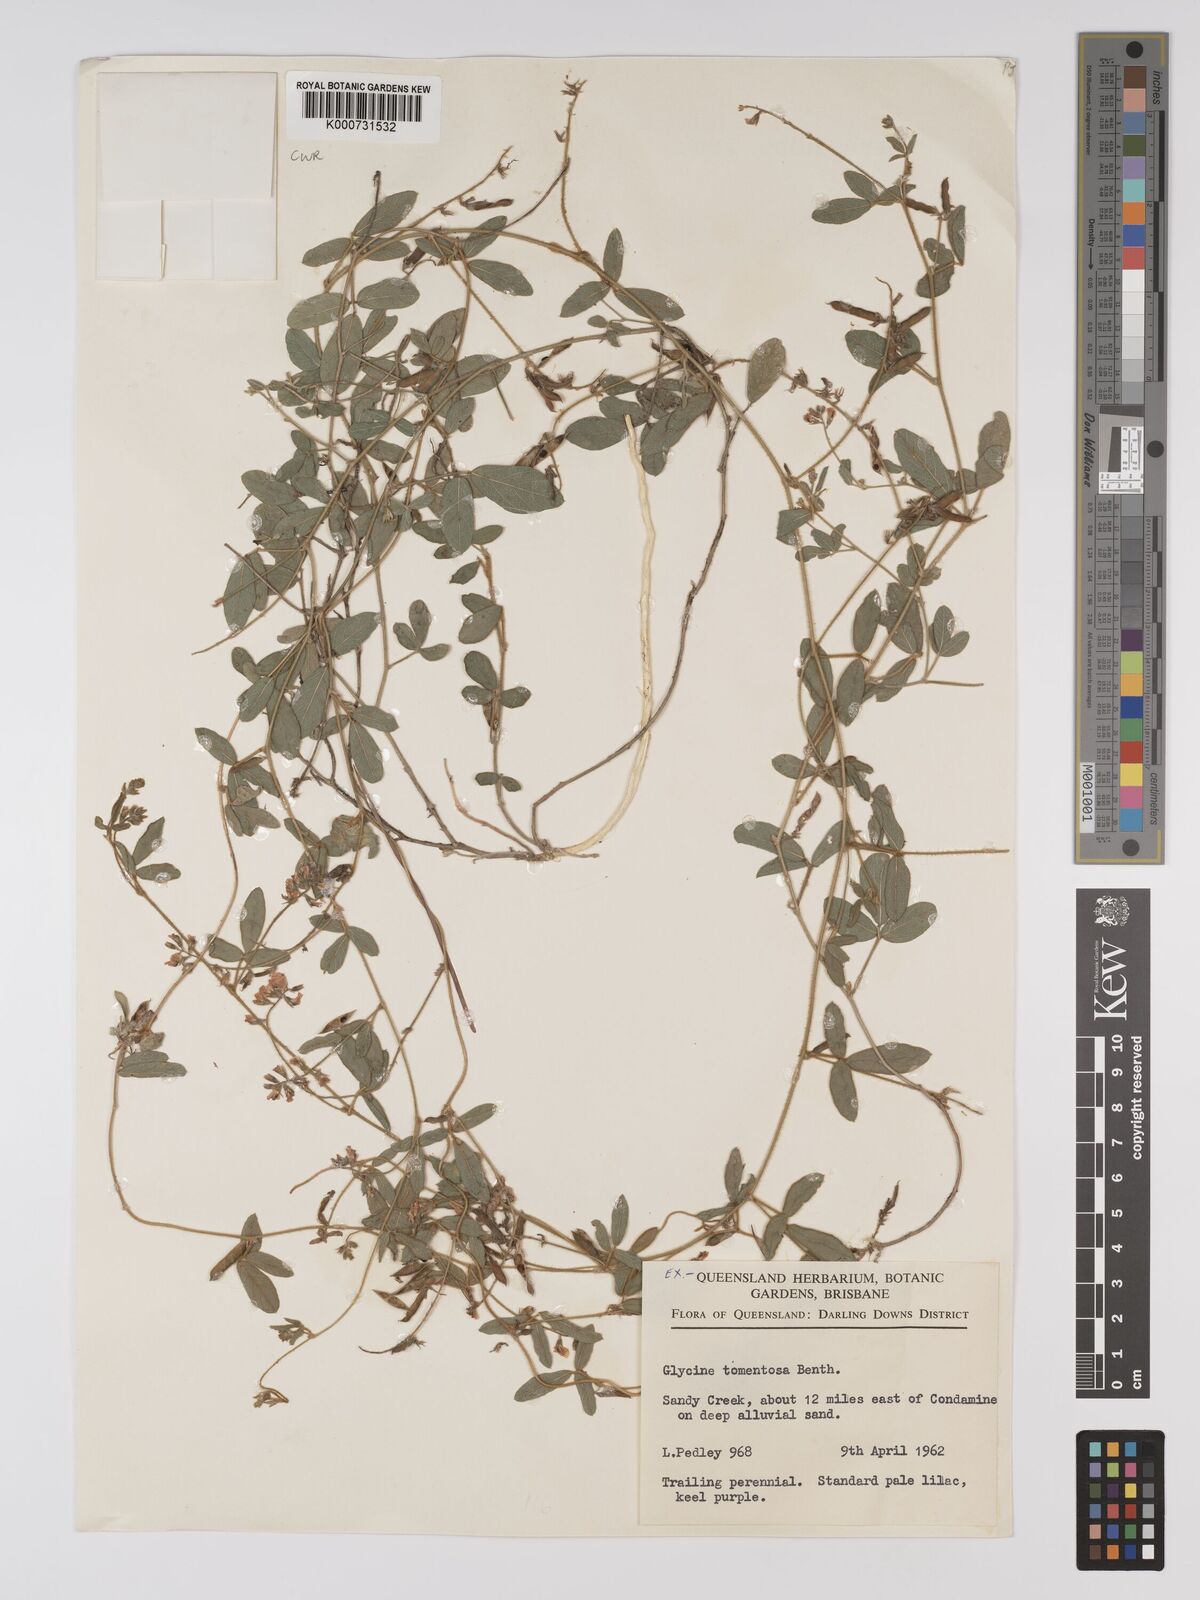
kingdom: Plantae
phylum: Tracheophyta
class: Magnoliopsida
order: Fabales
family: Fabaceae
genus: Rhynchosia
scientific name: Rhynchosia tomentosa
